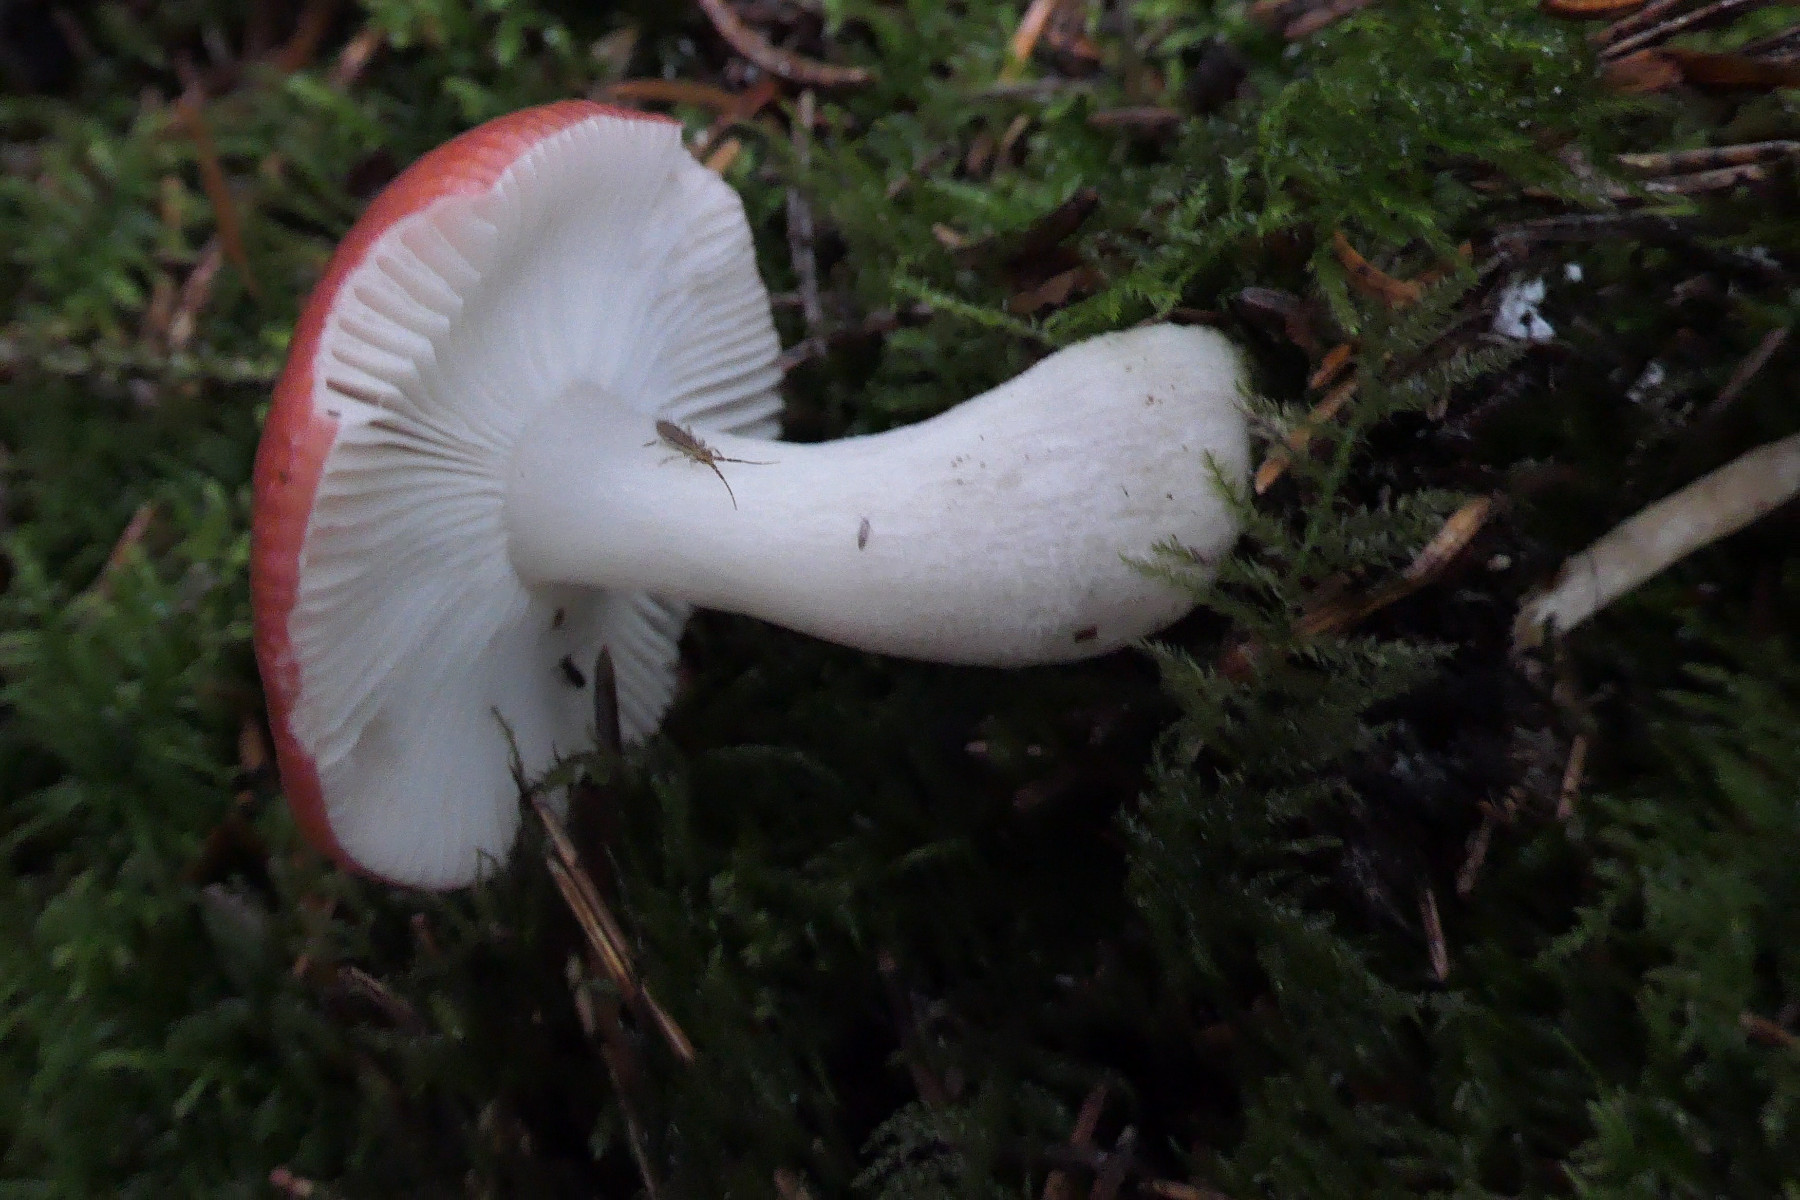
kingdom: Fungi
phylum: Basidiomycota
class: Agaricomycetes
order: Russulales
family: Russulaceae
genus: Russula
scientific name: Russula aquosa
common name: vand-skørhat
